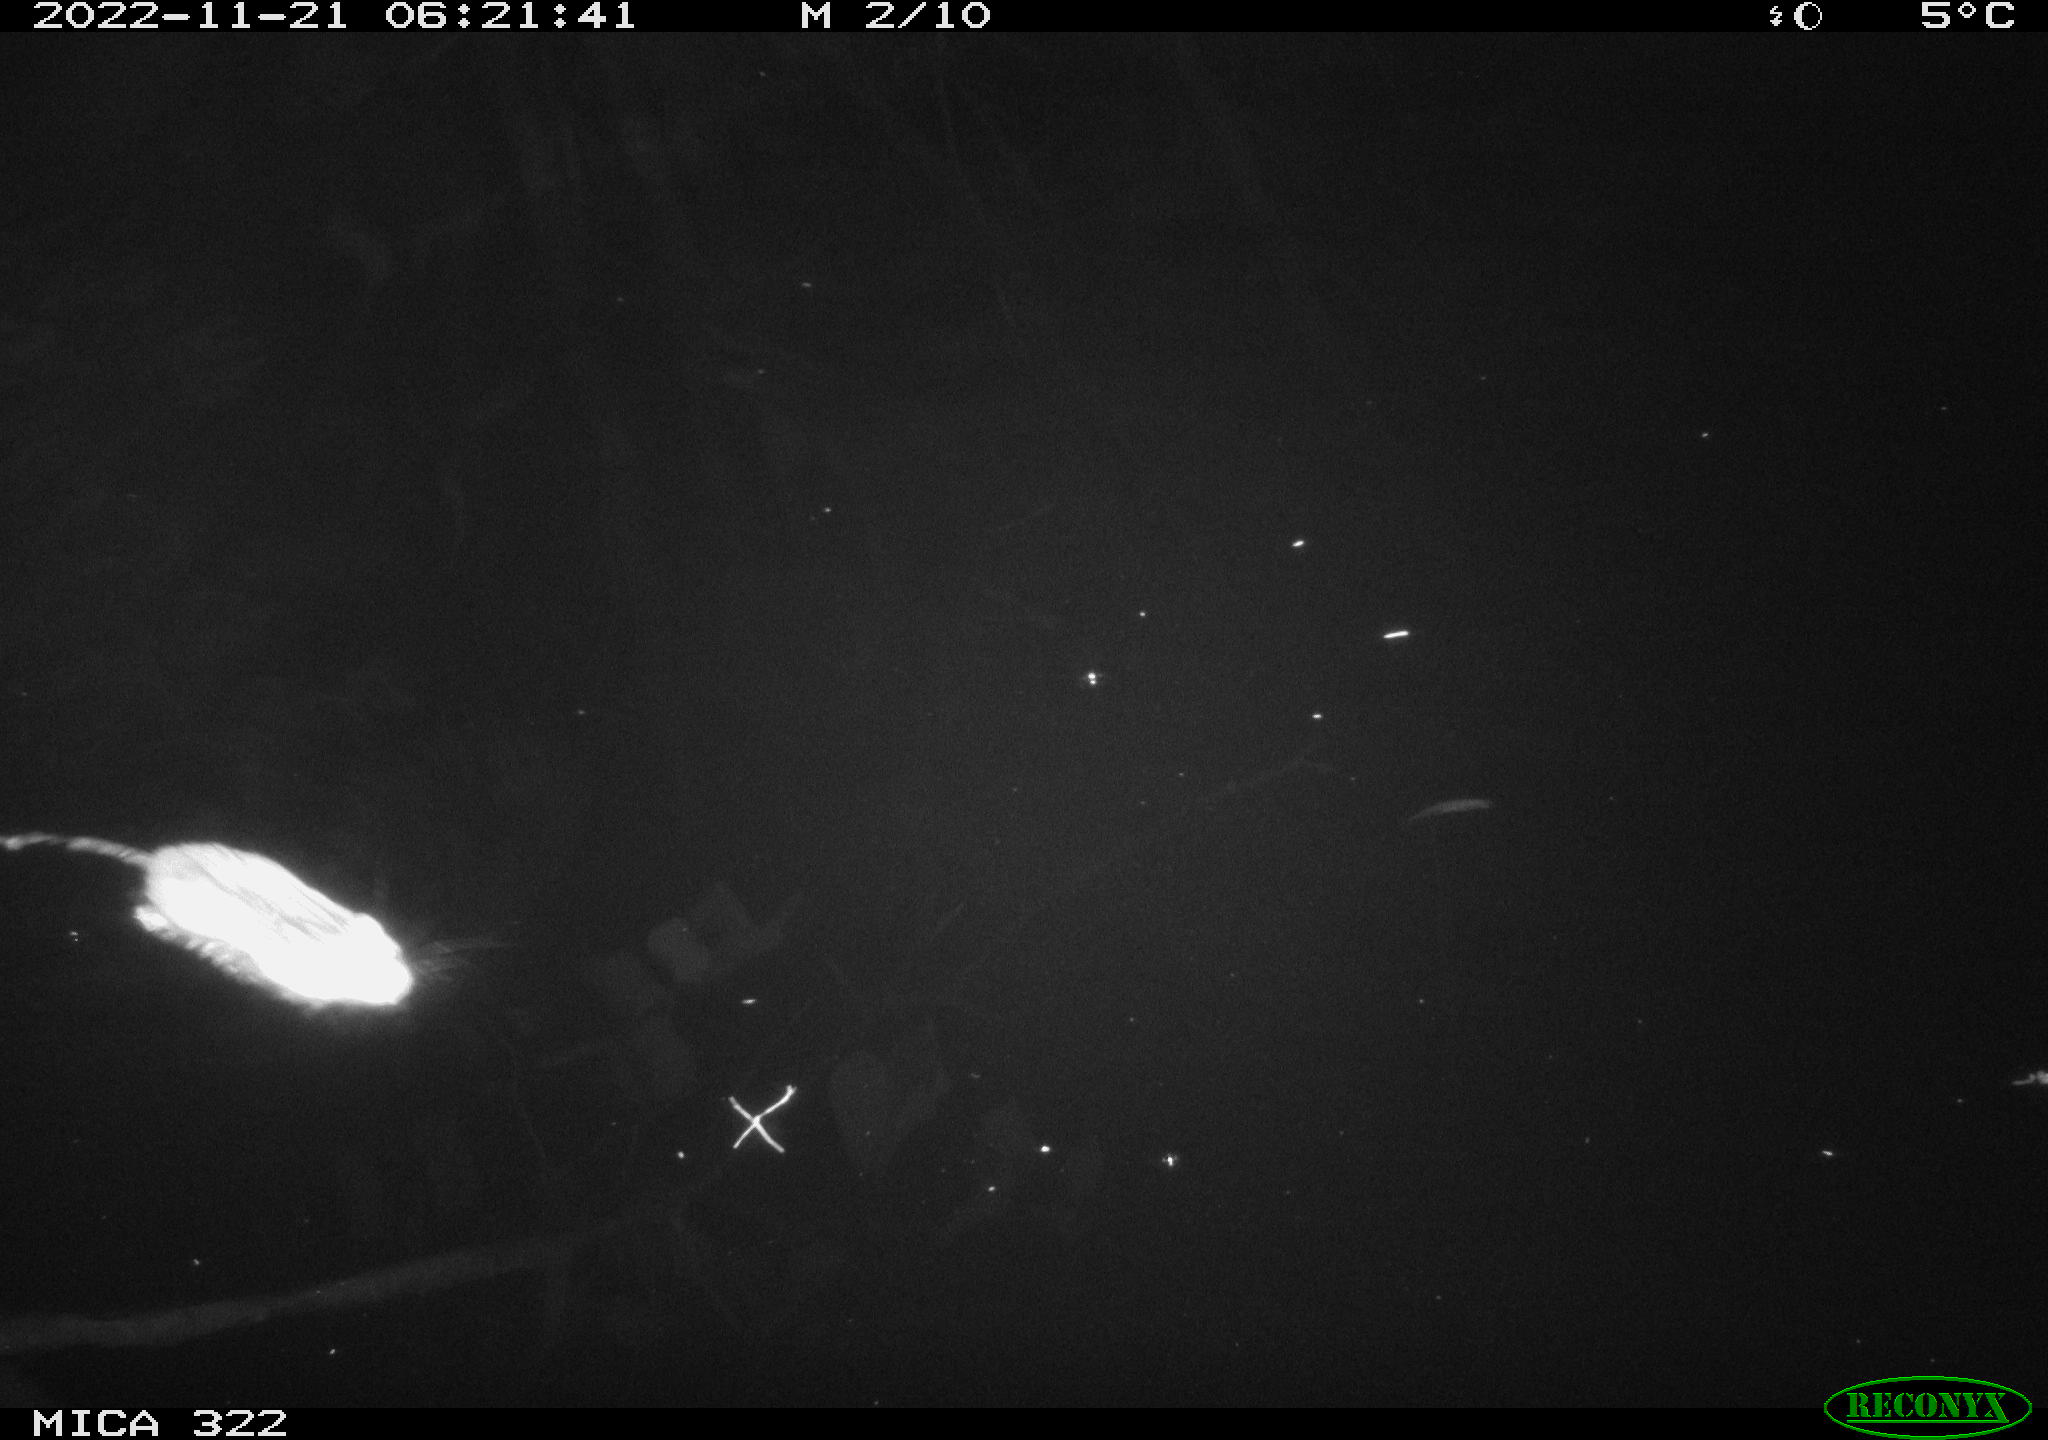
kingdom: Animalia
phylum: Chordata
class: Mammalia
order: Rodentia
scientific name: Rodentia
